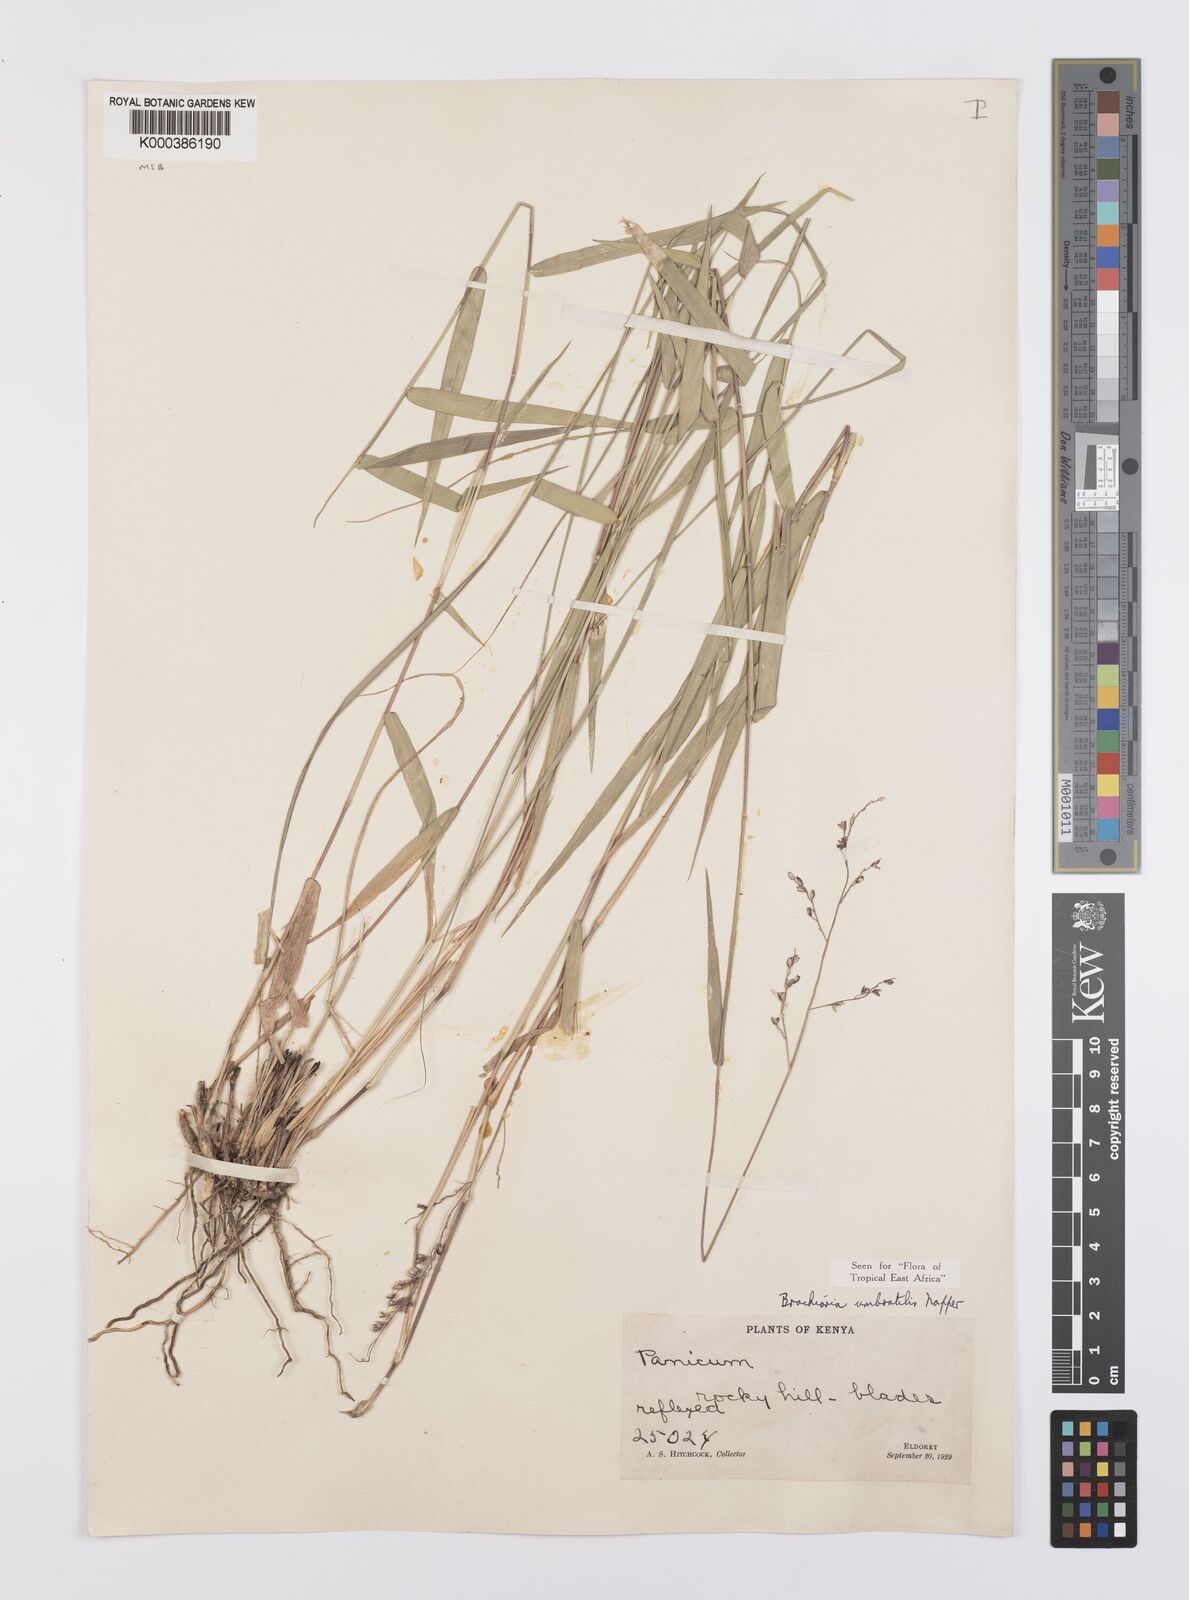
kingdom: Plantae
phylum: Tracheophyta
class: Liliopsida
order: Poales
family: Poaceae
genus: Urochloa
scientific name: Urochloa Brachiaria umbratilis
